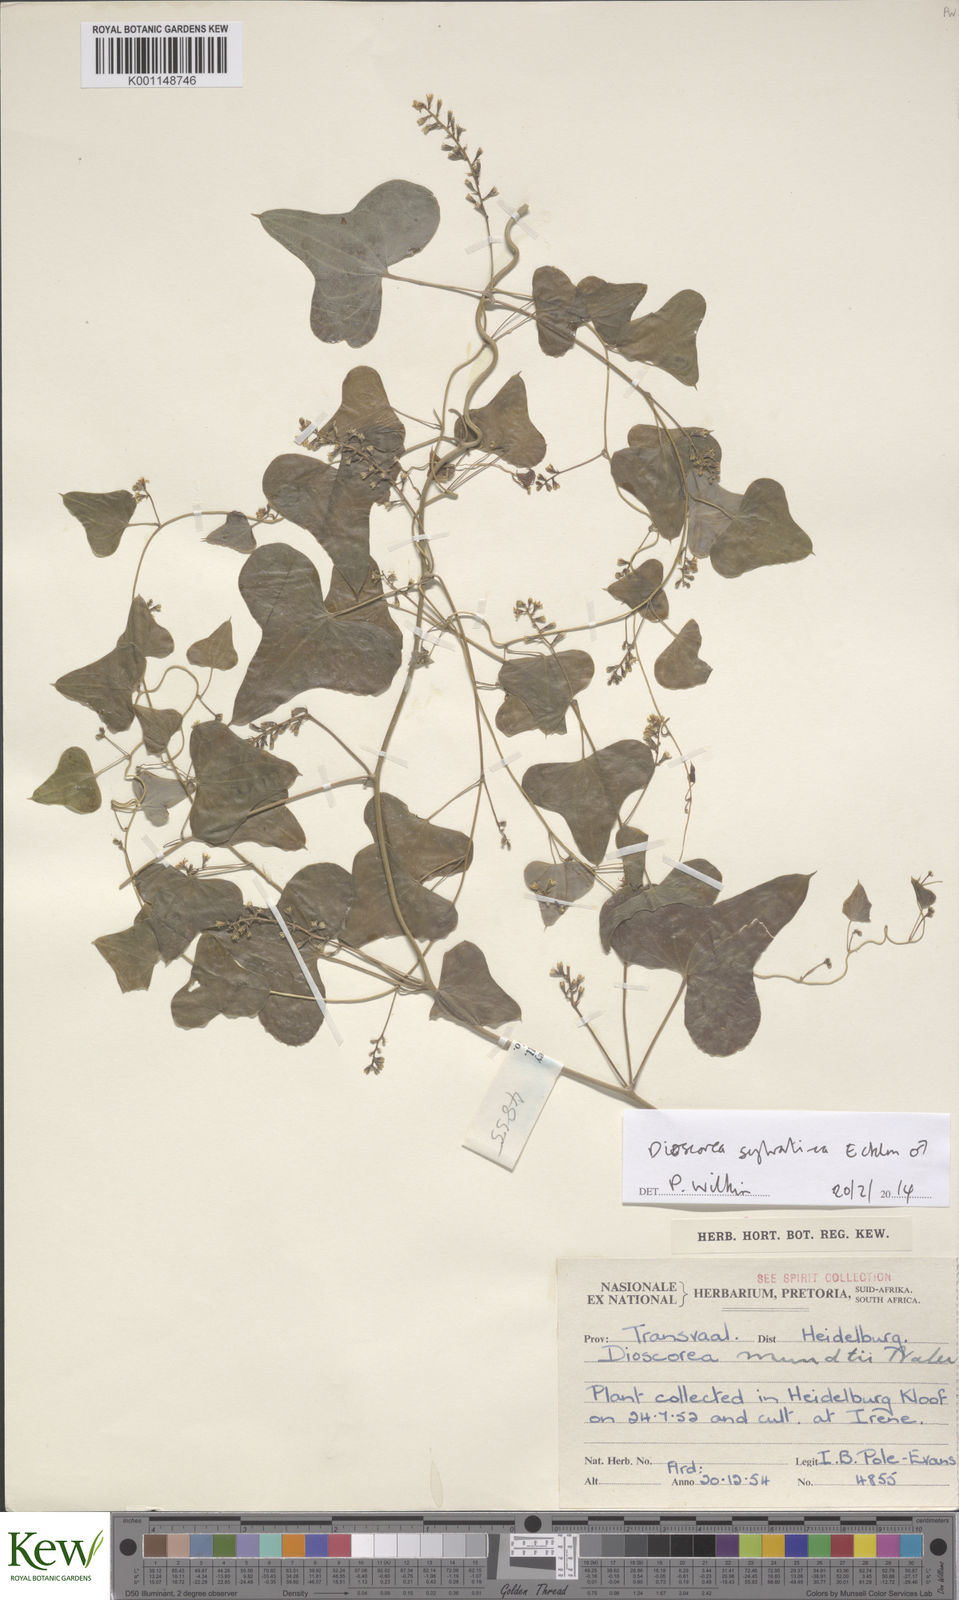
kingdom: Plantae
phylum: Tracheophyta
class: Liliopsida
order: Dioscoreales
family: Dioscoreaceae
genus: Dioscorea
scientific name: Dioscorea sylvatica
